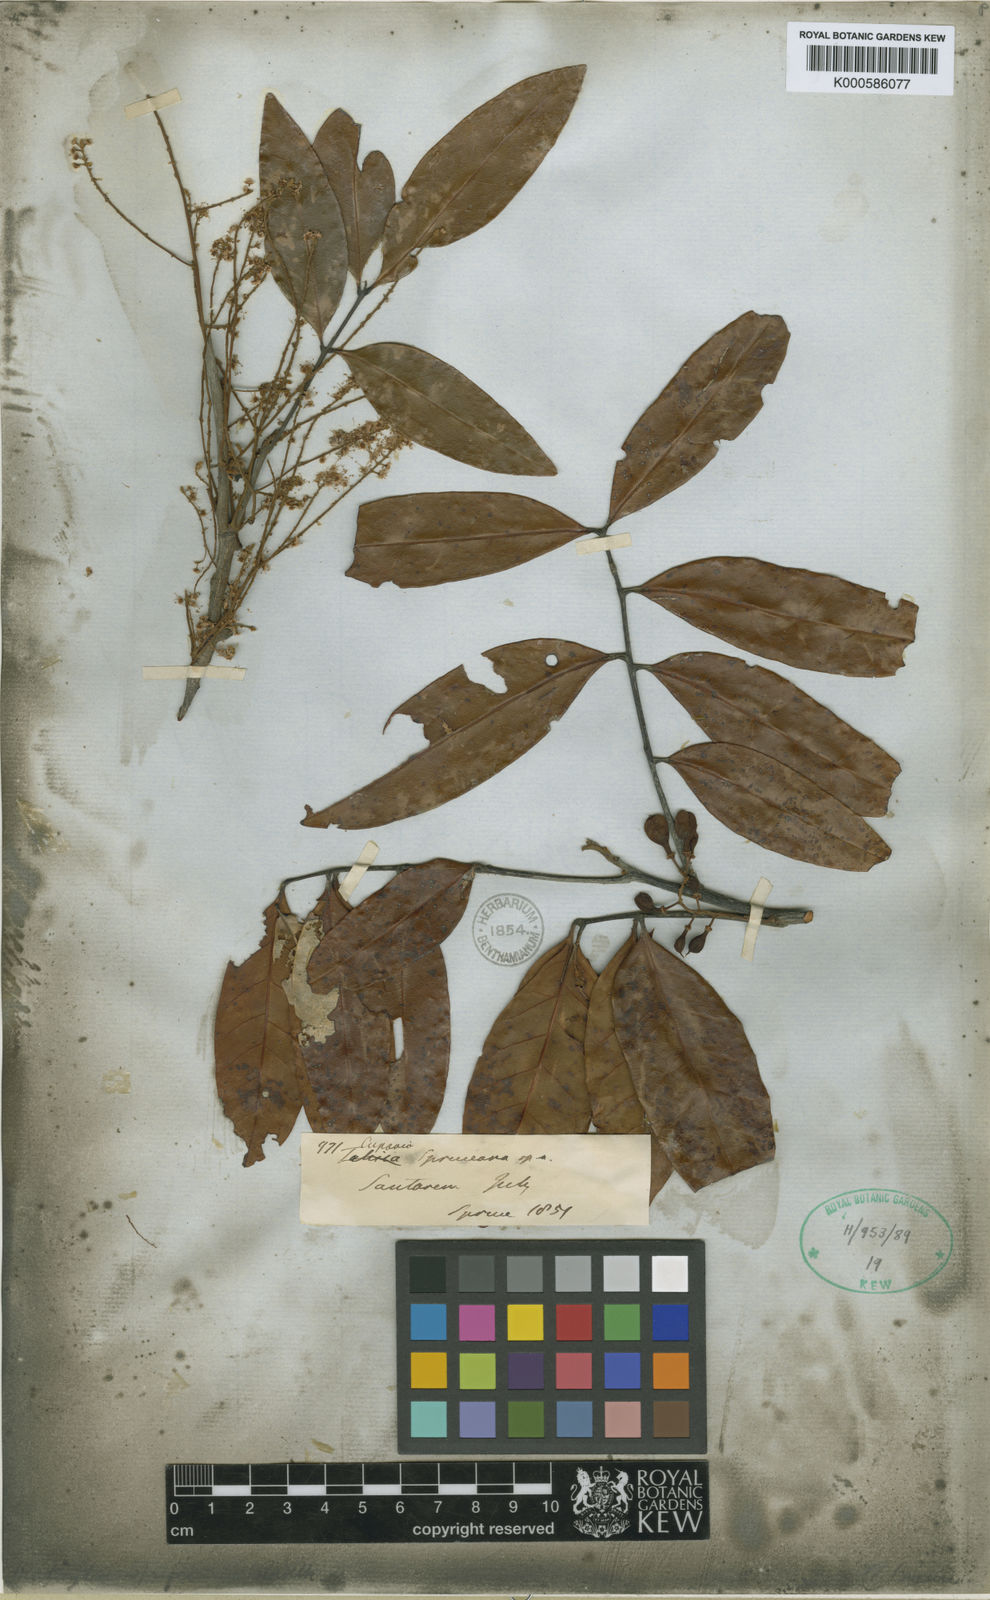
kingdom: Plantae
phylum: Tracheophyta
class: Magnoliopsida
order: Sapindales
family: Sapindaceae
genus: Matayba
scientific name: Matayba spruceana
